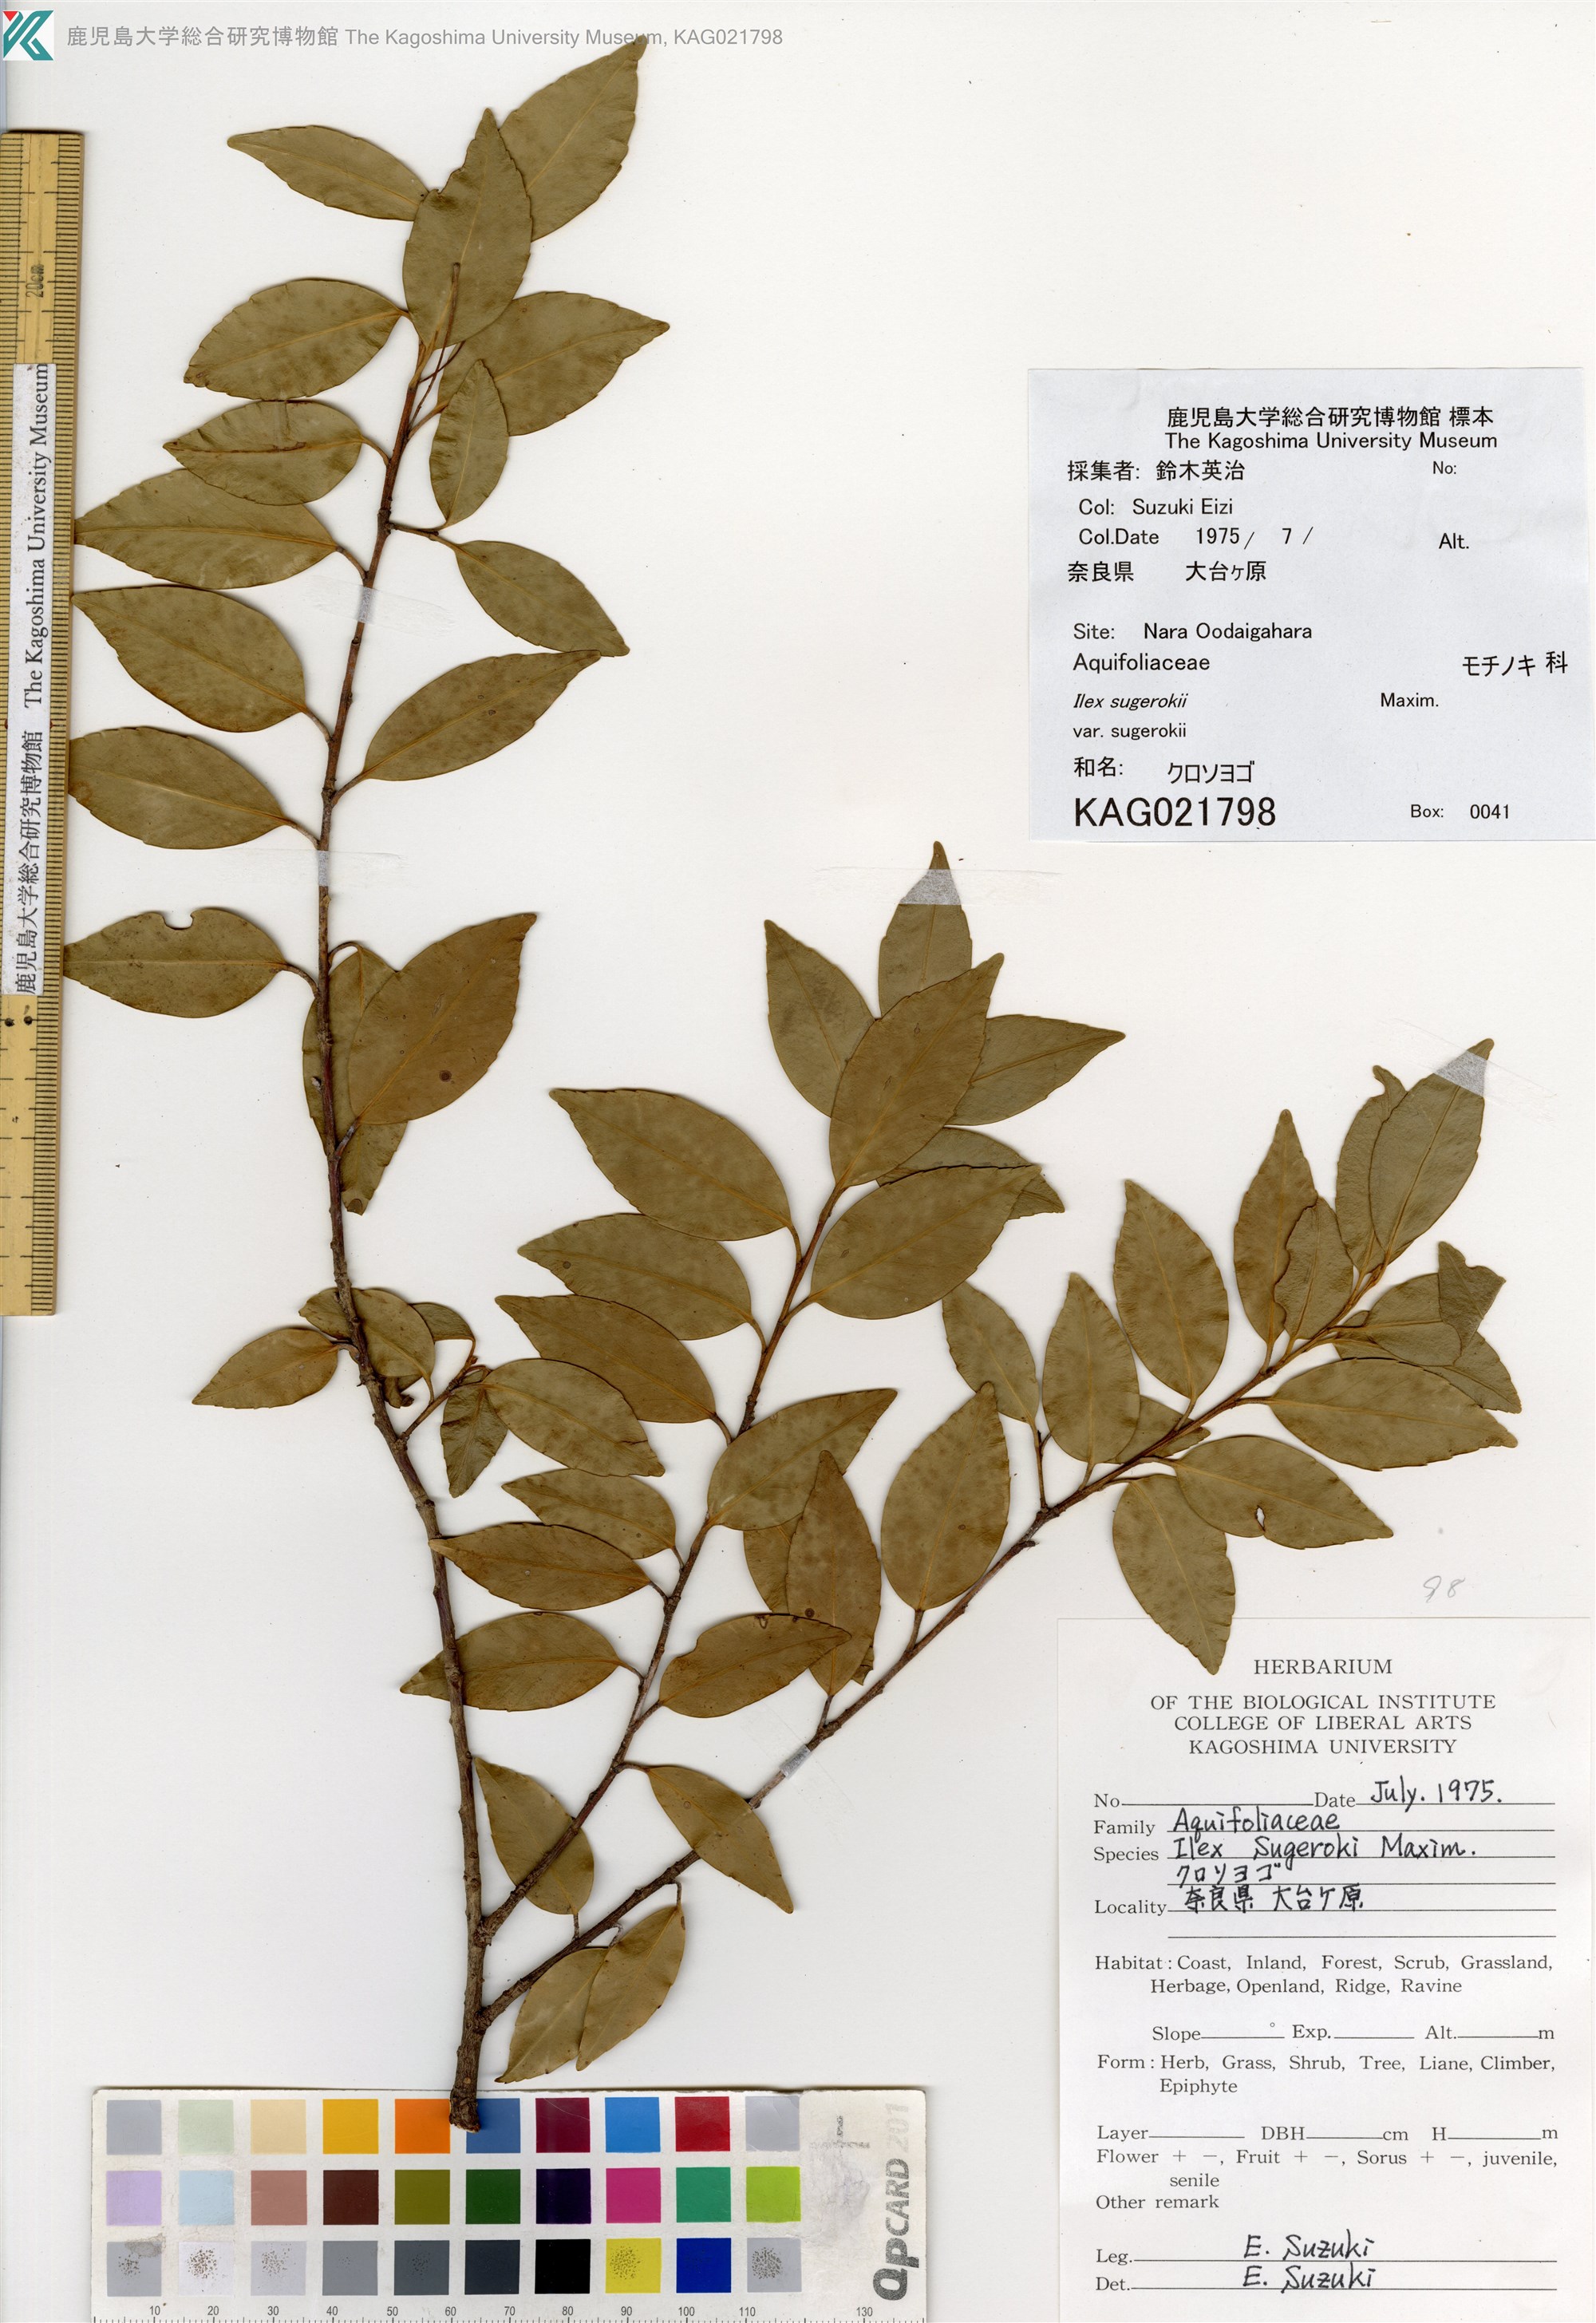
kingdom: Plantae
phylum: Tracheophyta
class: Magnoliopsida
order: Aquifoliales
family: Aquifoliaceae
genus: Ilex
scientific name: Ilex sugerokii
